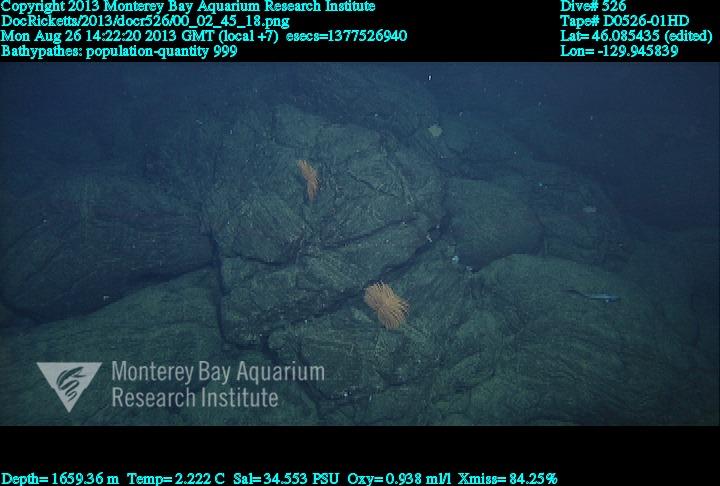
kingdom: Animalia
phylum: Cnidaria
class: Anthozoa
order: Antipatharia
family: Schizopathidae
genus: Bathypathes
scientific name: Bathypathes
